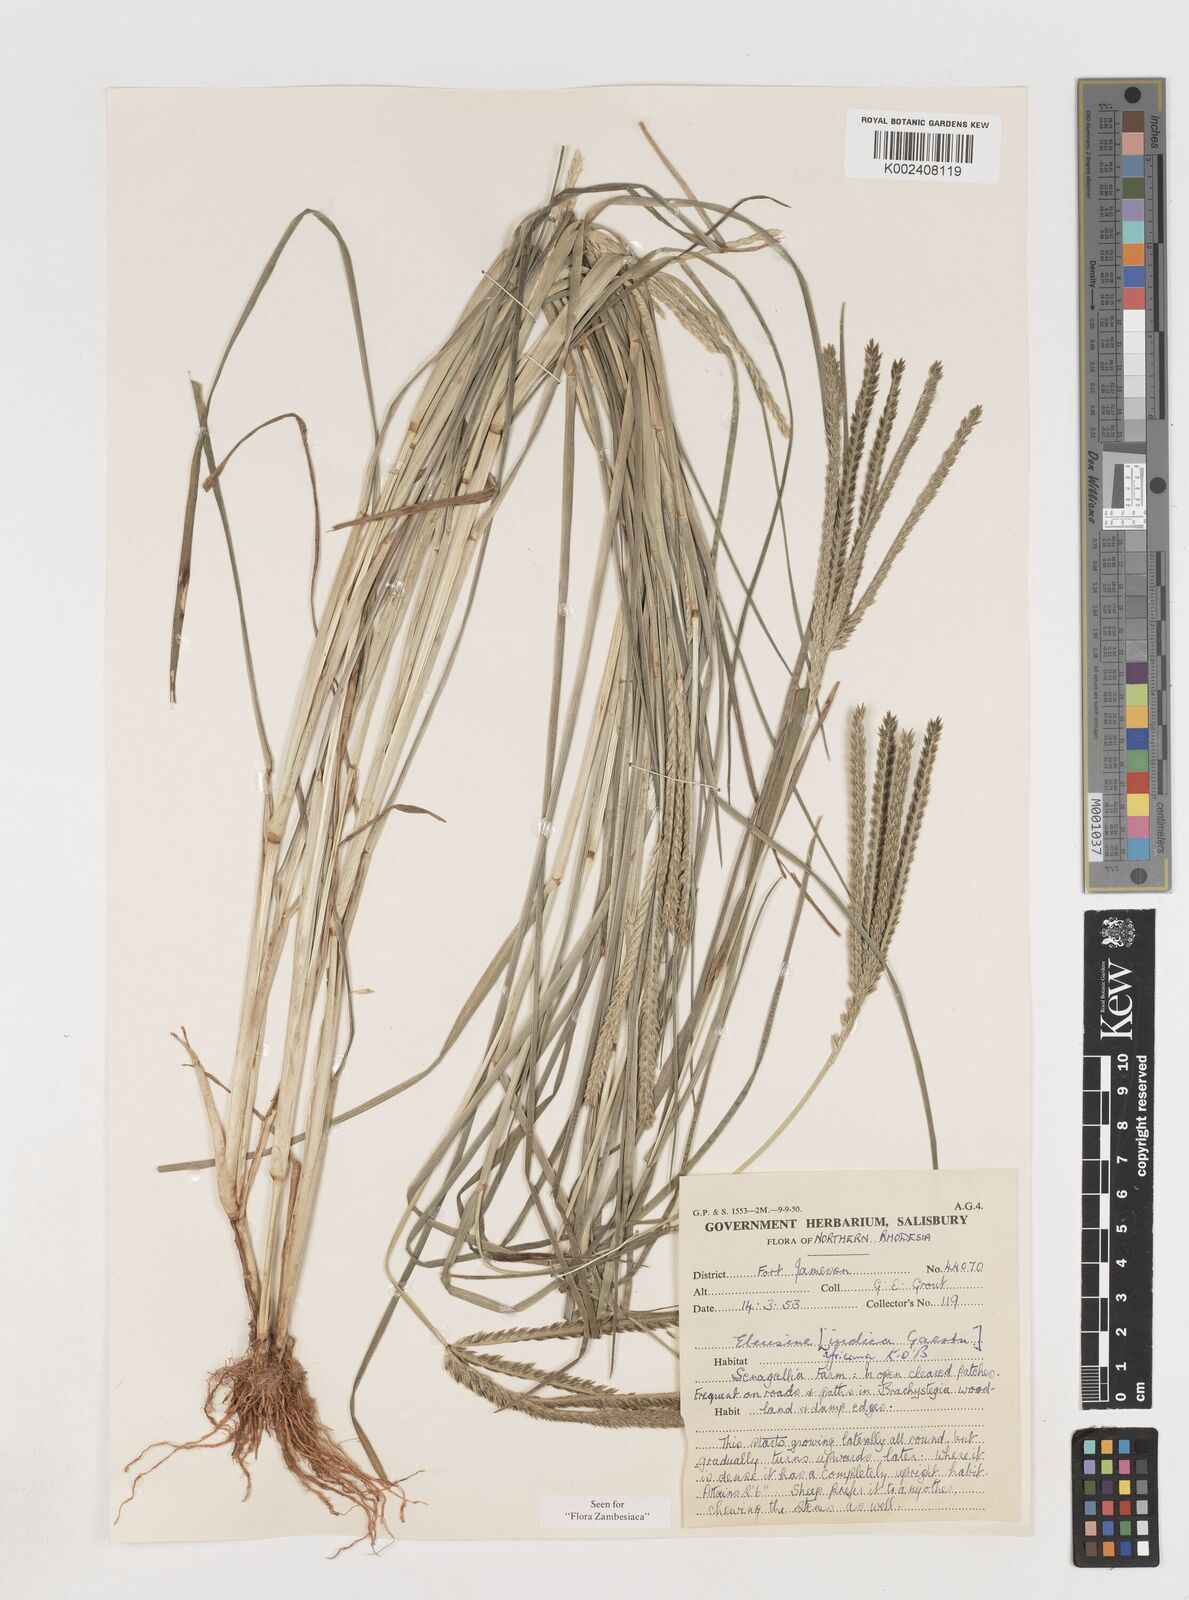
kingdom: Plantae
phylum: Tracheophyta
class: Liliopsida
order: Poales
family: Poaceae
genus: Eleusine
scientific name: Eleusine africana
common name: Wild african finger millet
